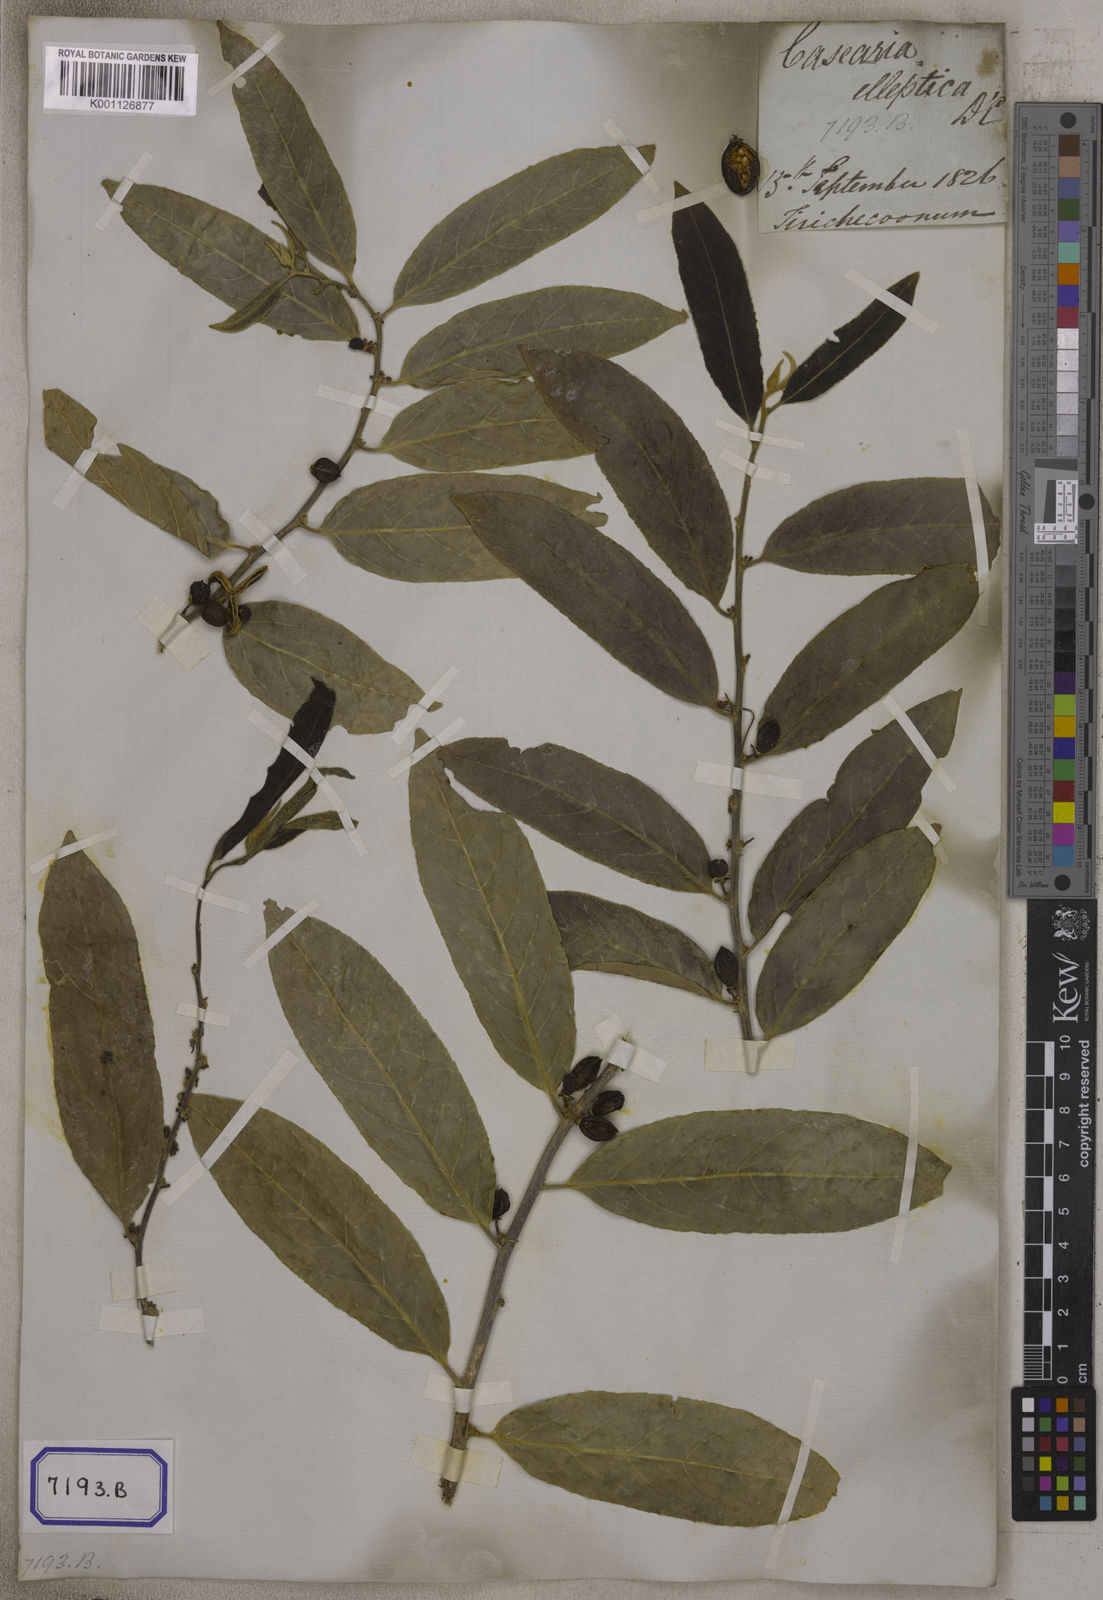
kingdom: Plantae
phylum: Tracheophyta
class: Magnoliopsida
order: Malpighiales
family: Salicaceae
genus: Casearia
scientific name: Casearia tomentosa
